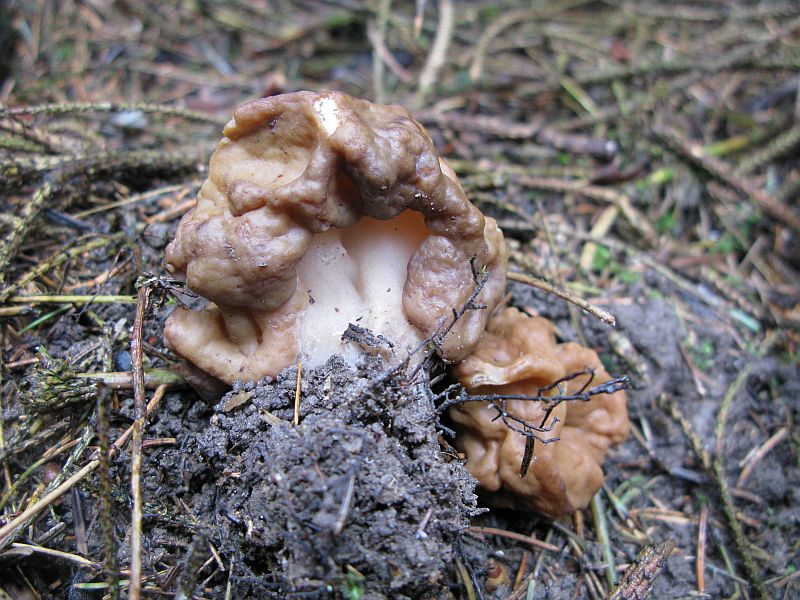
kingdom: Fungi
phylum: Ascomycota
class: Pezizomycetes
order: Pezizales
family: Discinaceae
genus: Gyromitra
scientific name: Gyromitra esculenta
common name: ægte stenmorkel
